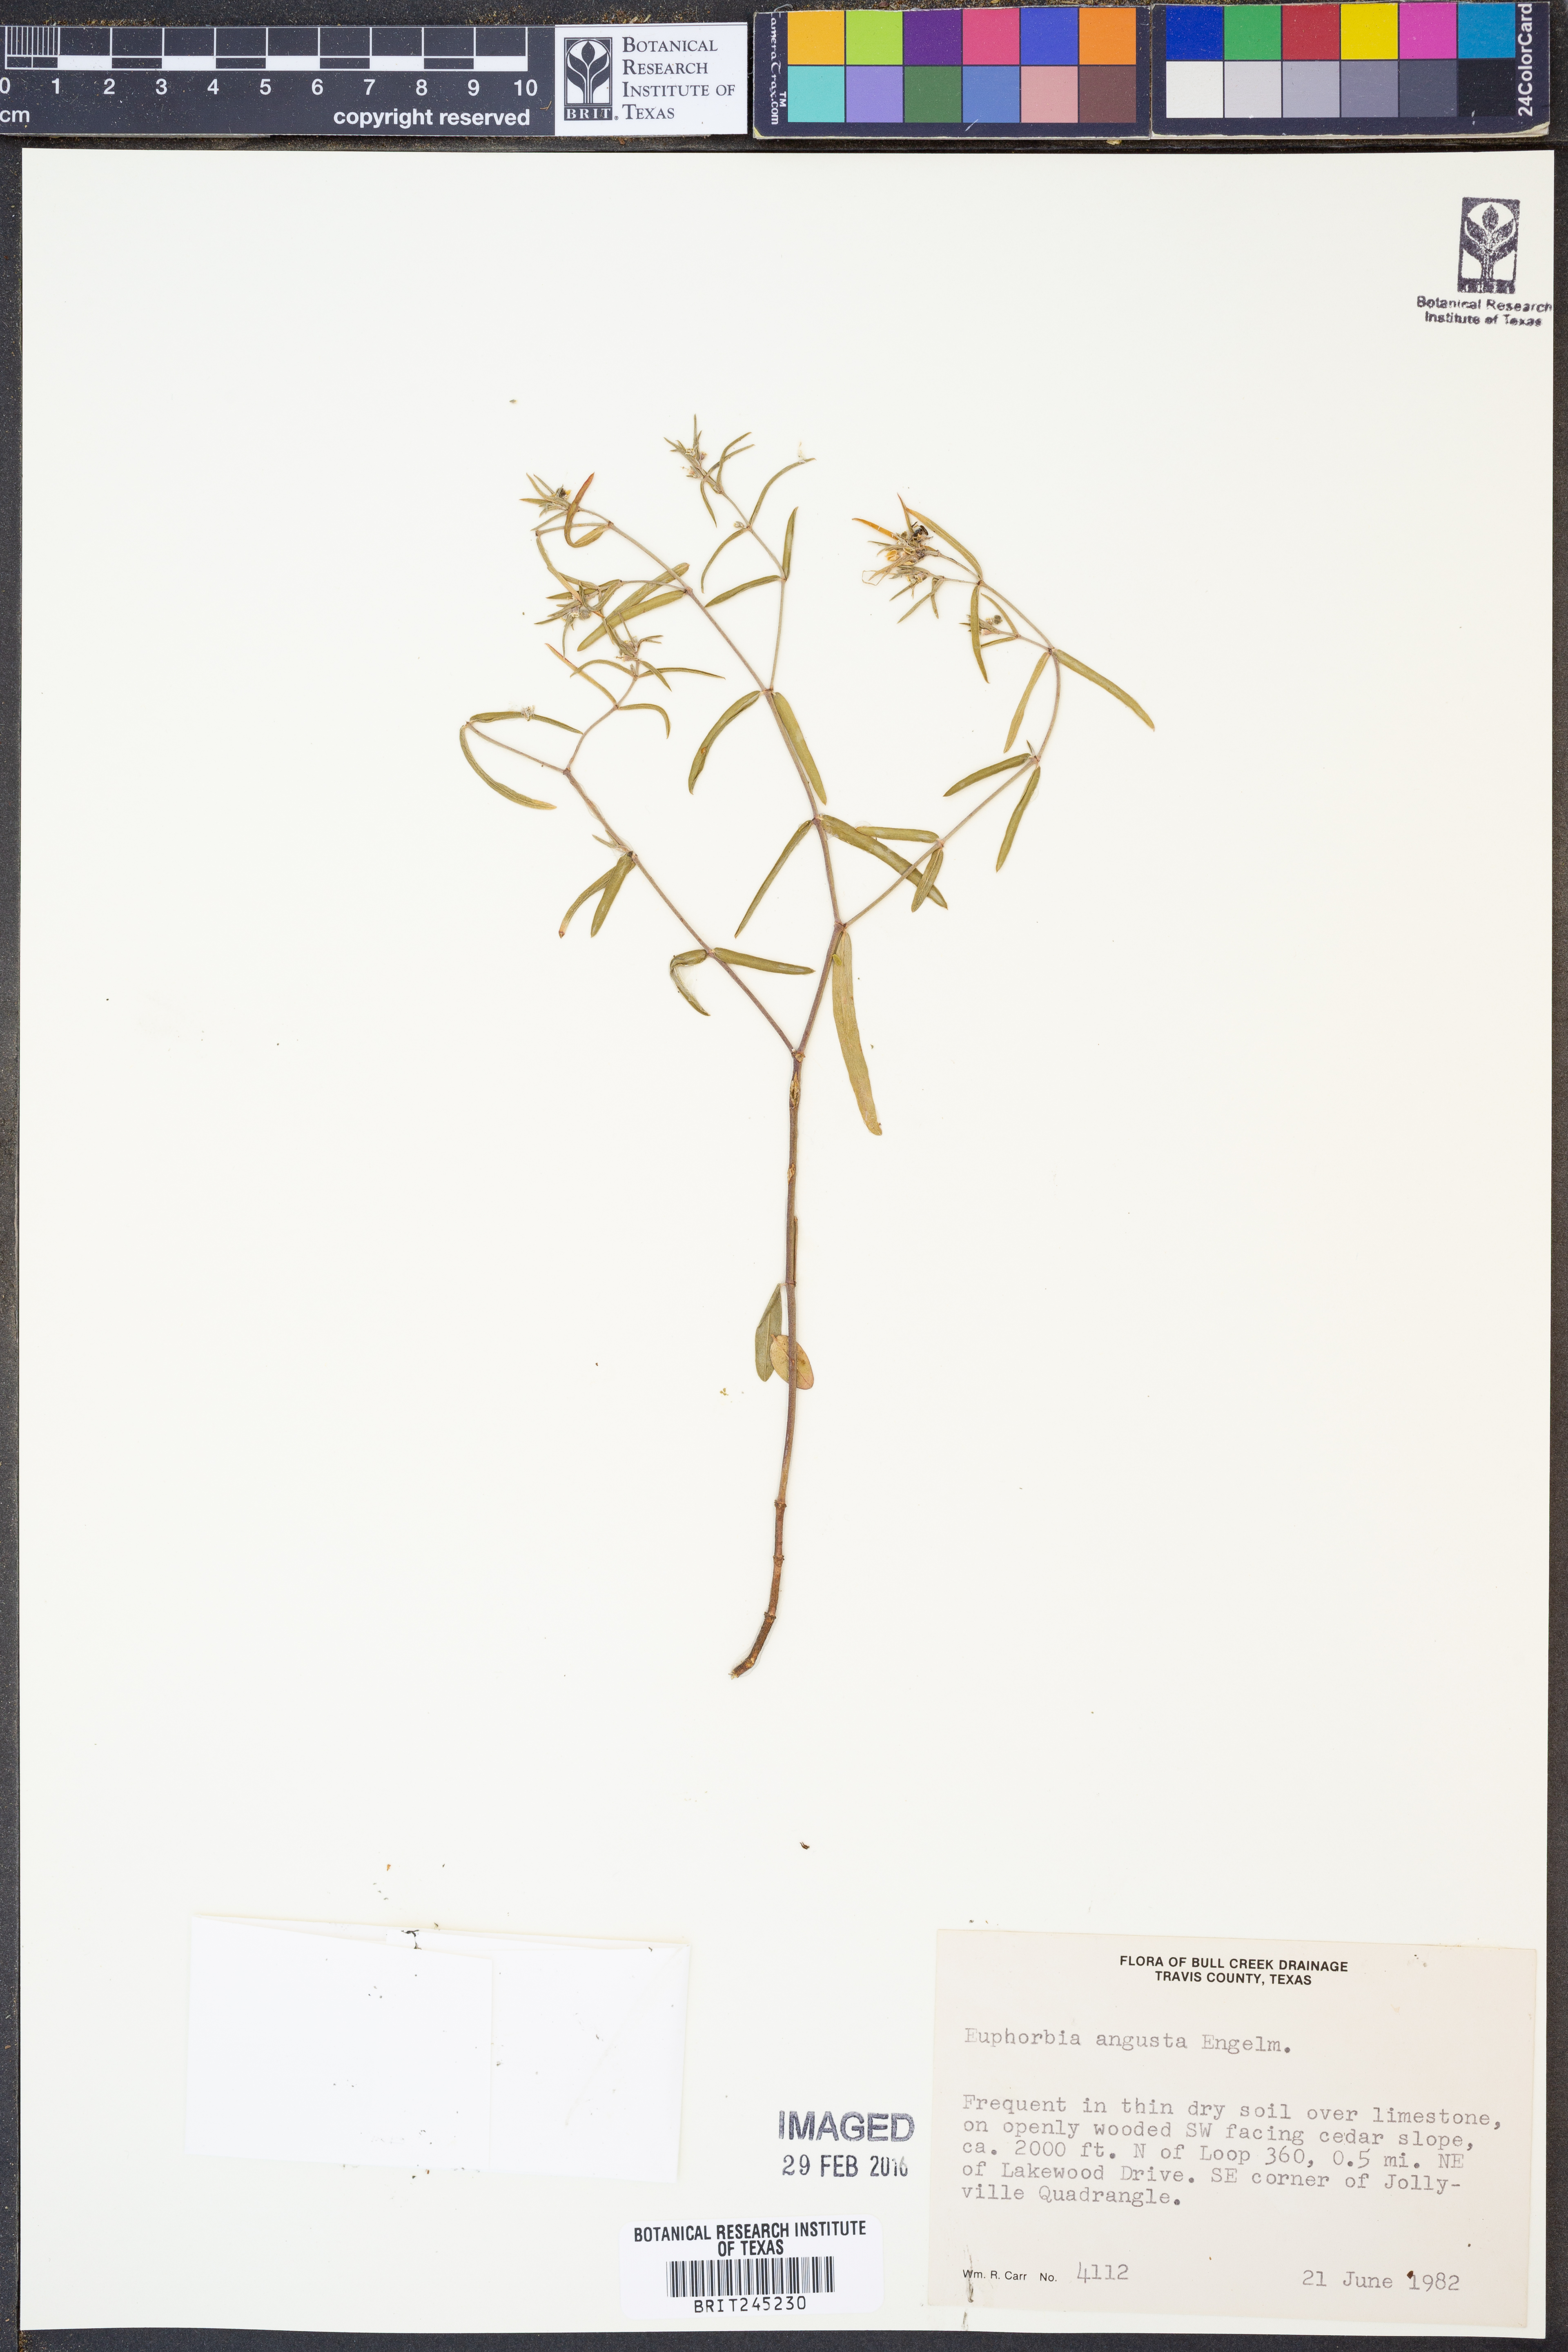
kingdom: Plantae
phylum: Tracheophyta
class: Magnoliopsida
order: Malpighiales
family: Euphorbiaceae
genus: Euphorbia
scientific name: Euphorbia angusta
